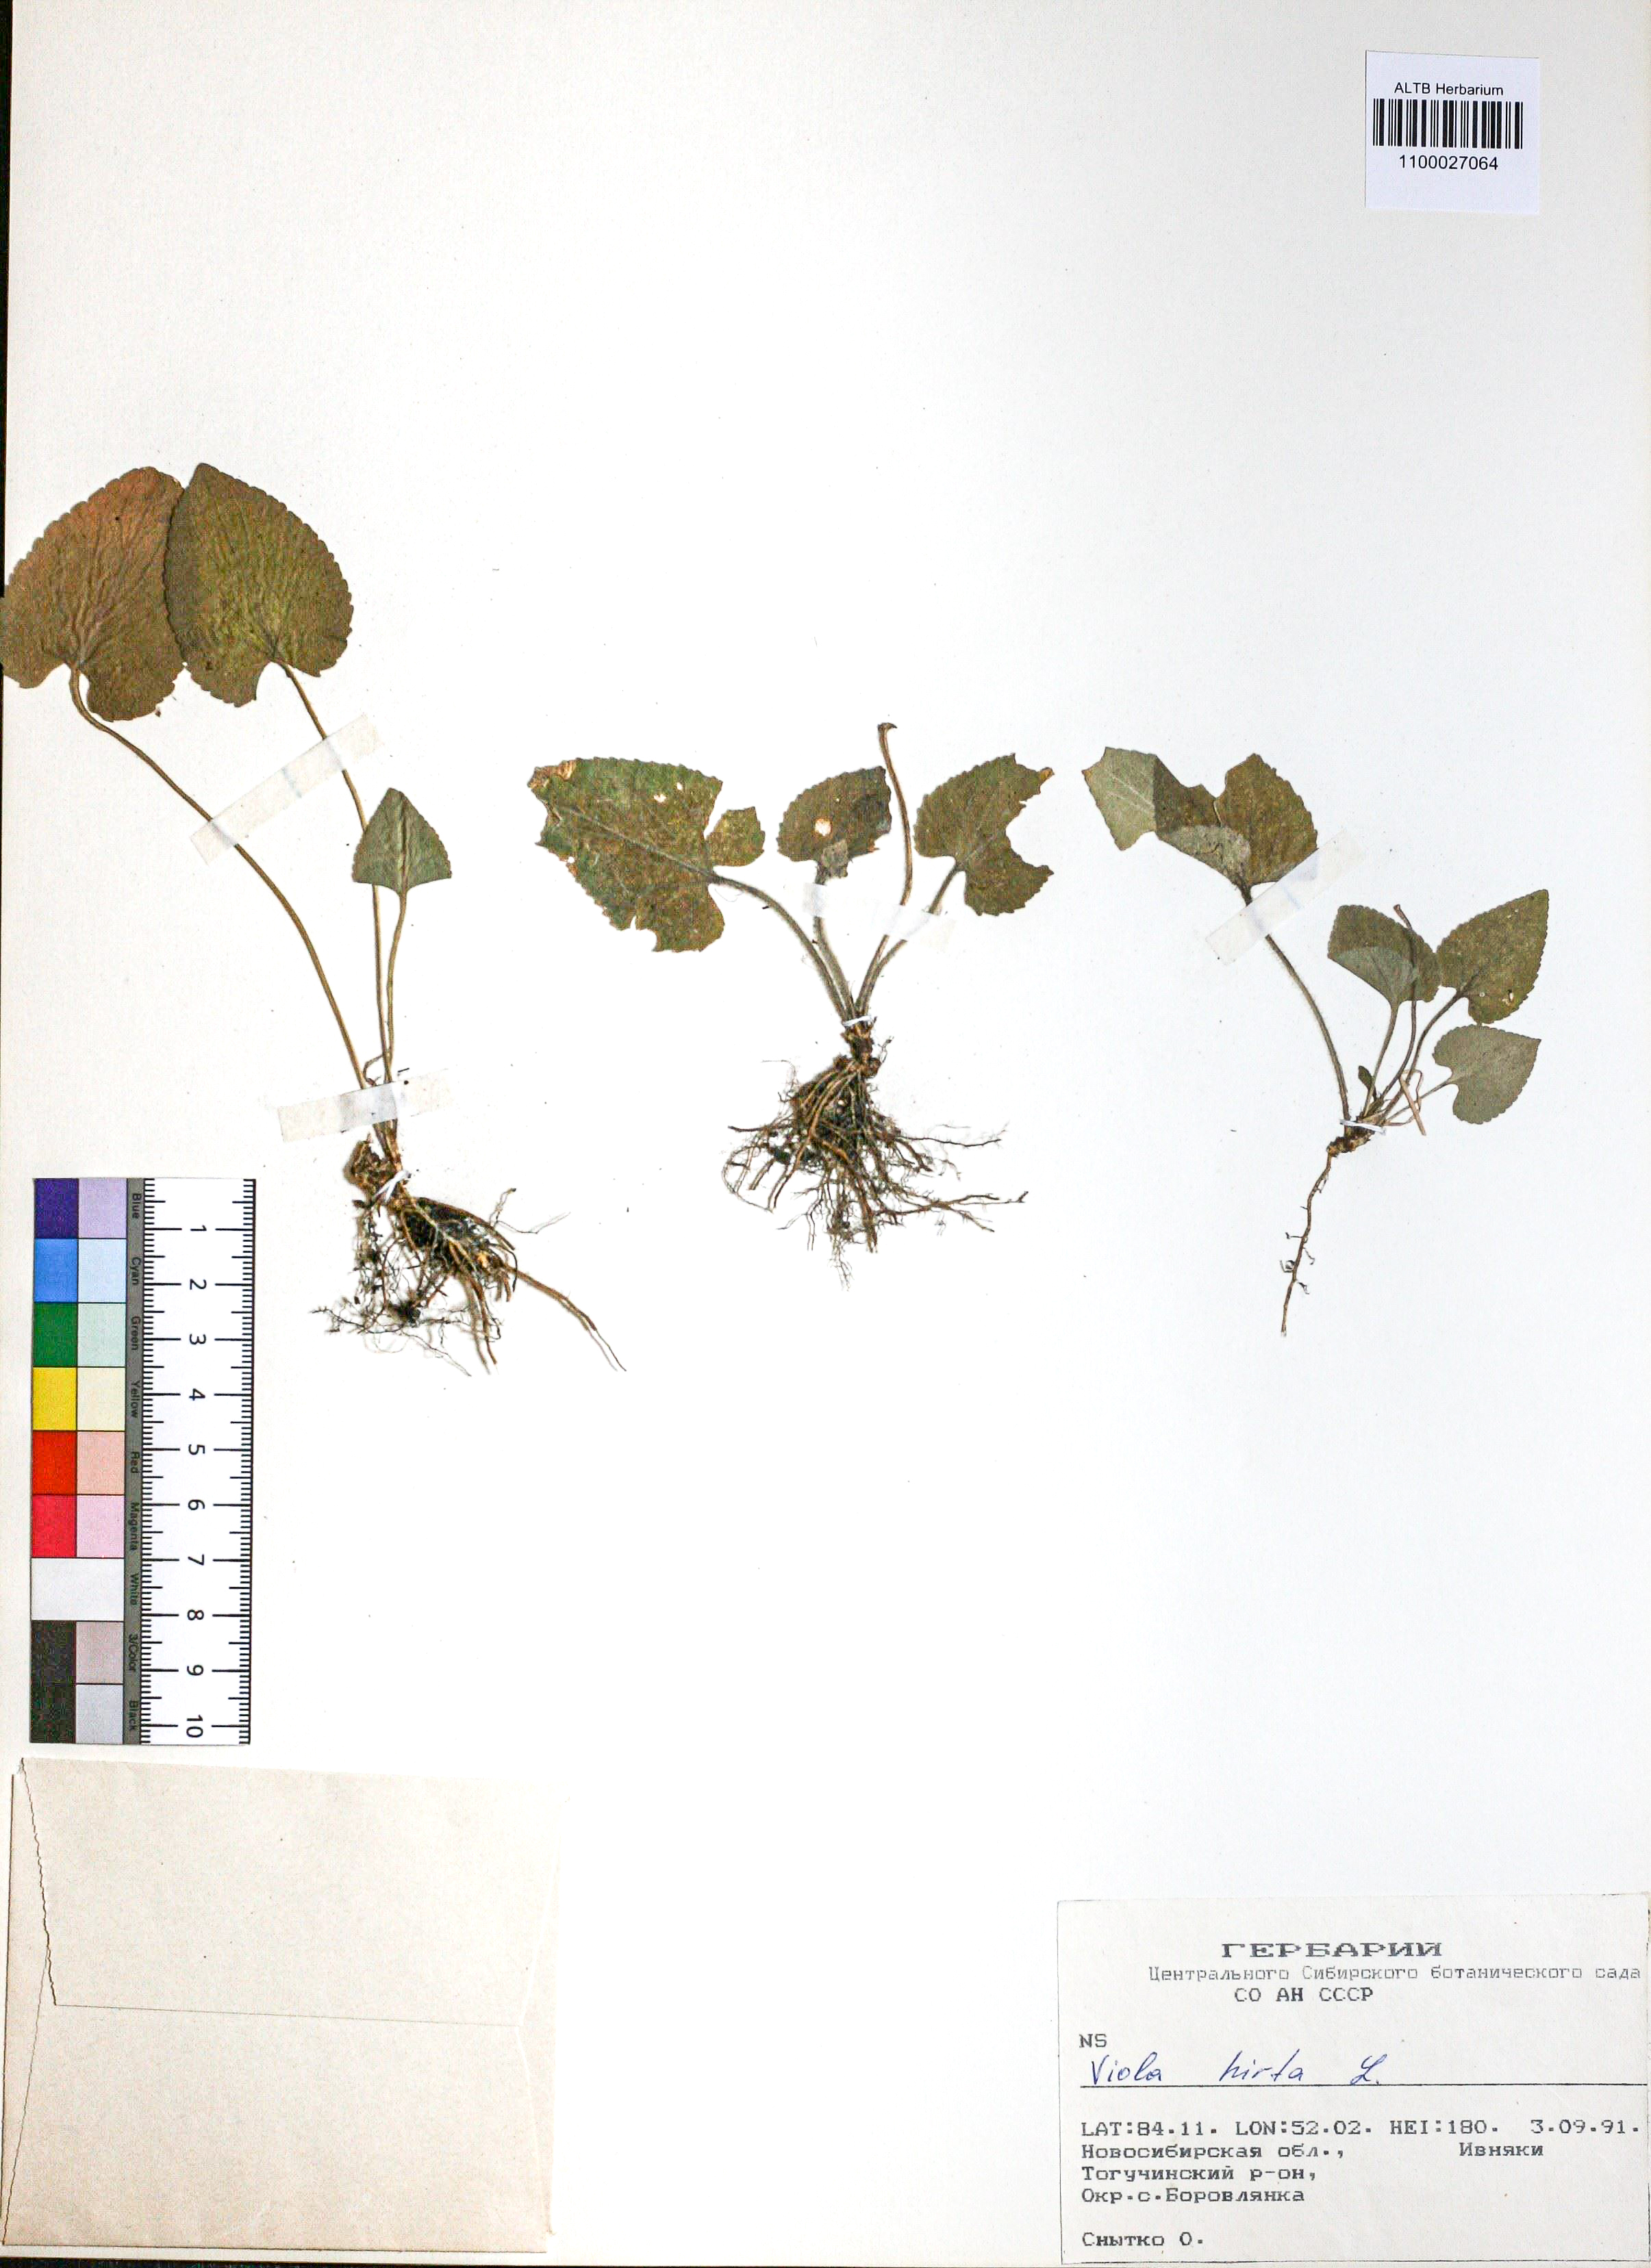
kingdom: Plantae
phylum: Tracheophyta
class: Magnoliopsida
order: Malpighiales
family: Violaceae
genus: Viola
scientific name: Viola hirta
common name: Hairy violet
